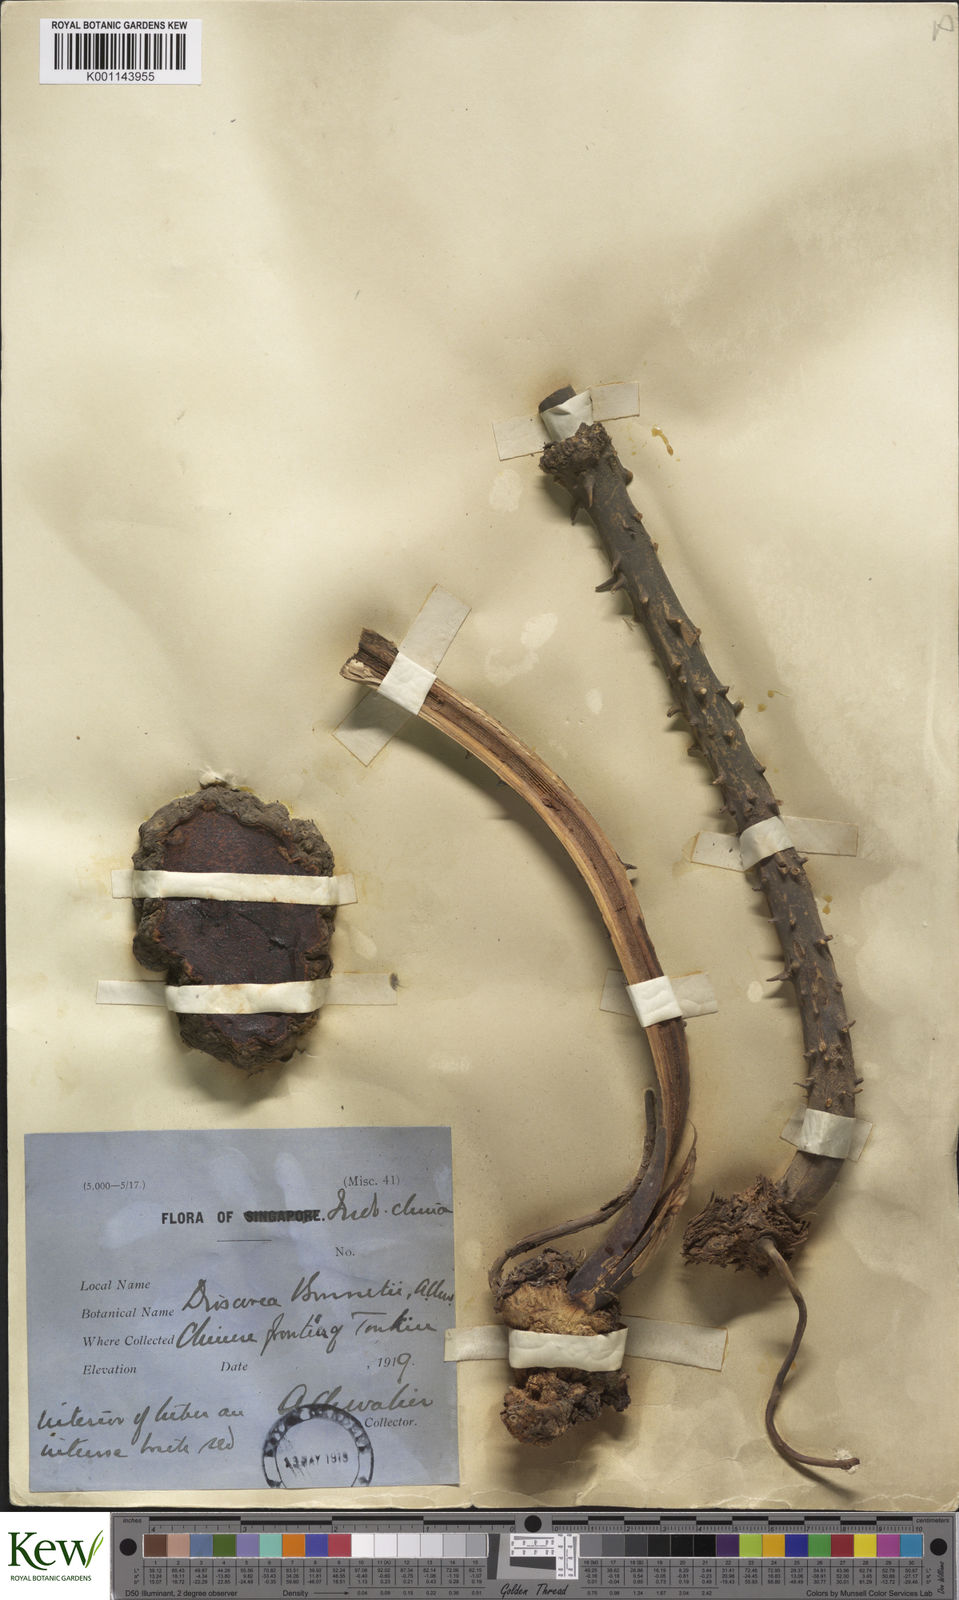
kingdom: Plantae
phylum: Tracheophyta
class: Liliopsida
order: Dioscoreales
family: Dioscoreaceae
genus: Dioscorea
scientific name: Dioscorea cirrhosa
